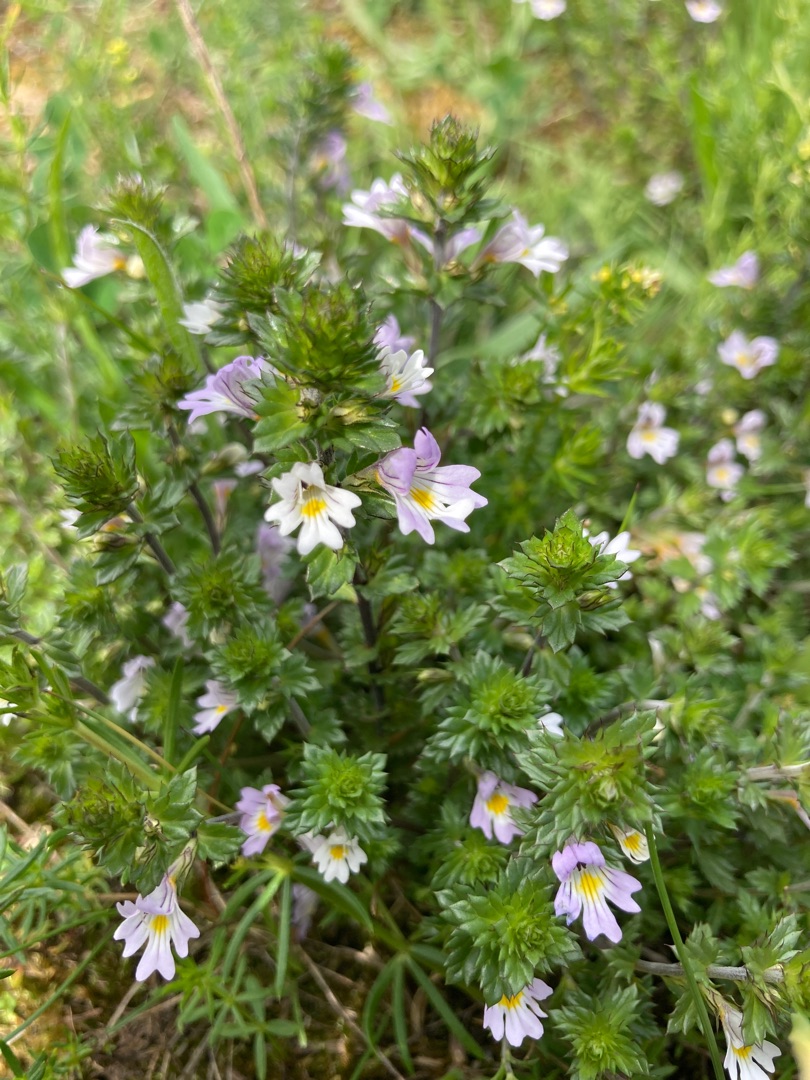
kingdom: Plantae
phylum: Tracheophyta
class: Magnoliopsida
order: Lamiales
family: Orobanchaceae
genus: Euphrasia
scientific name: Euphrasia stricta
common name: Spids øjentrøst
